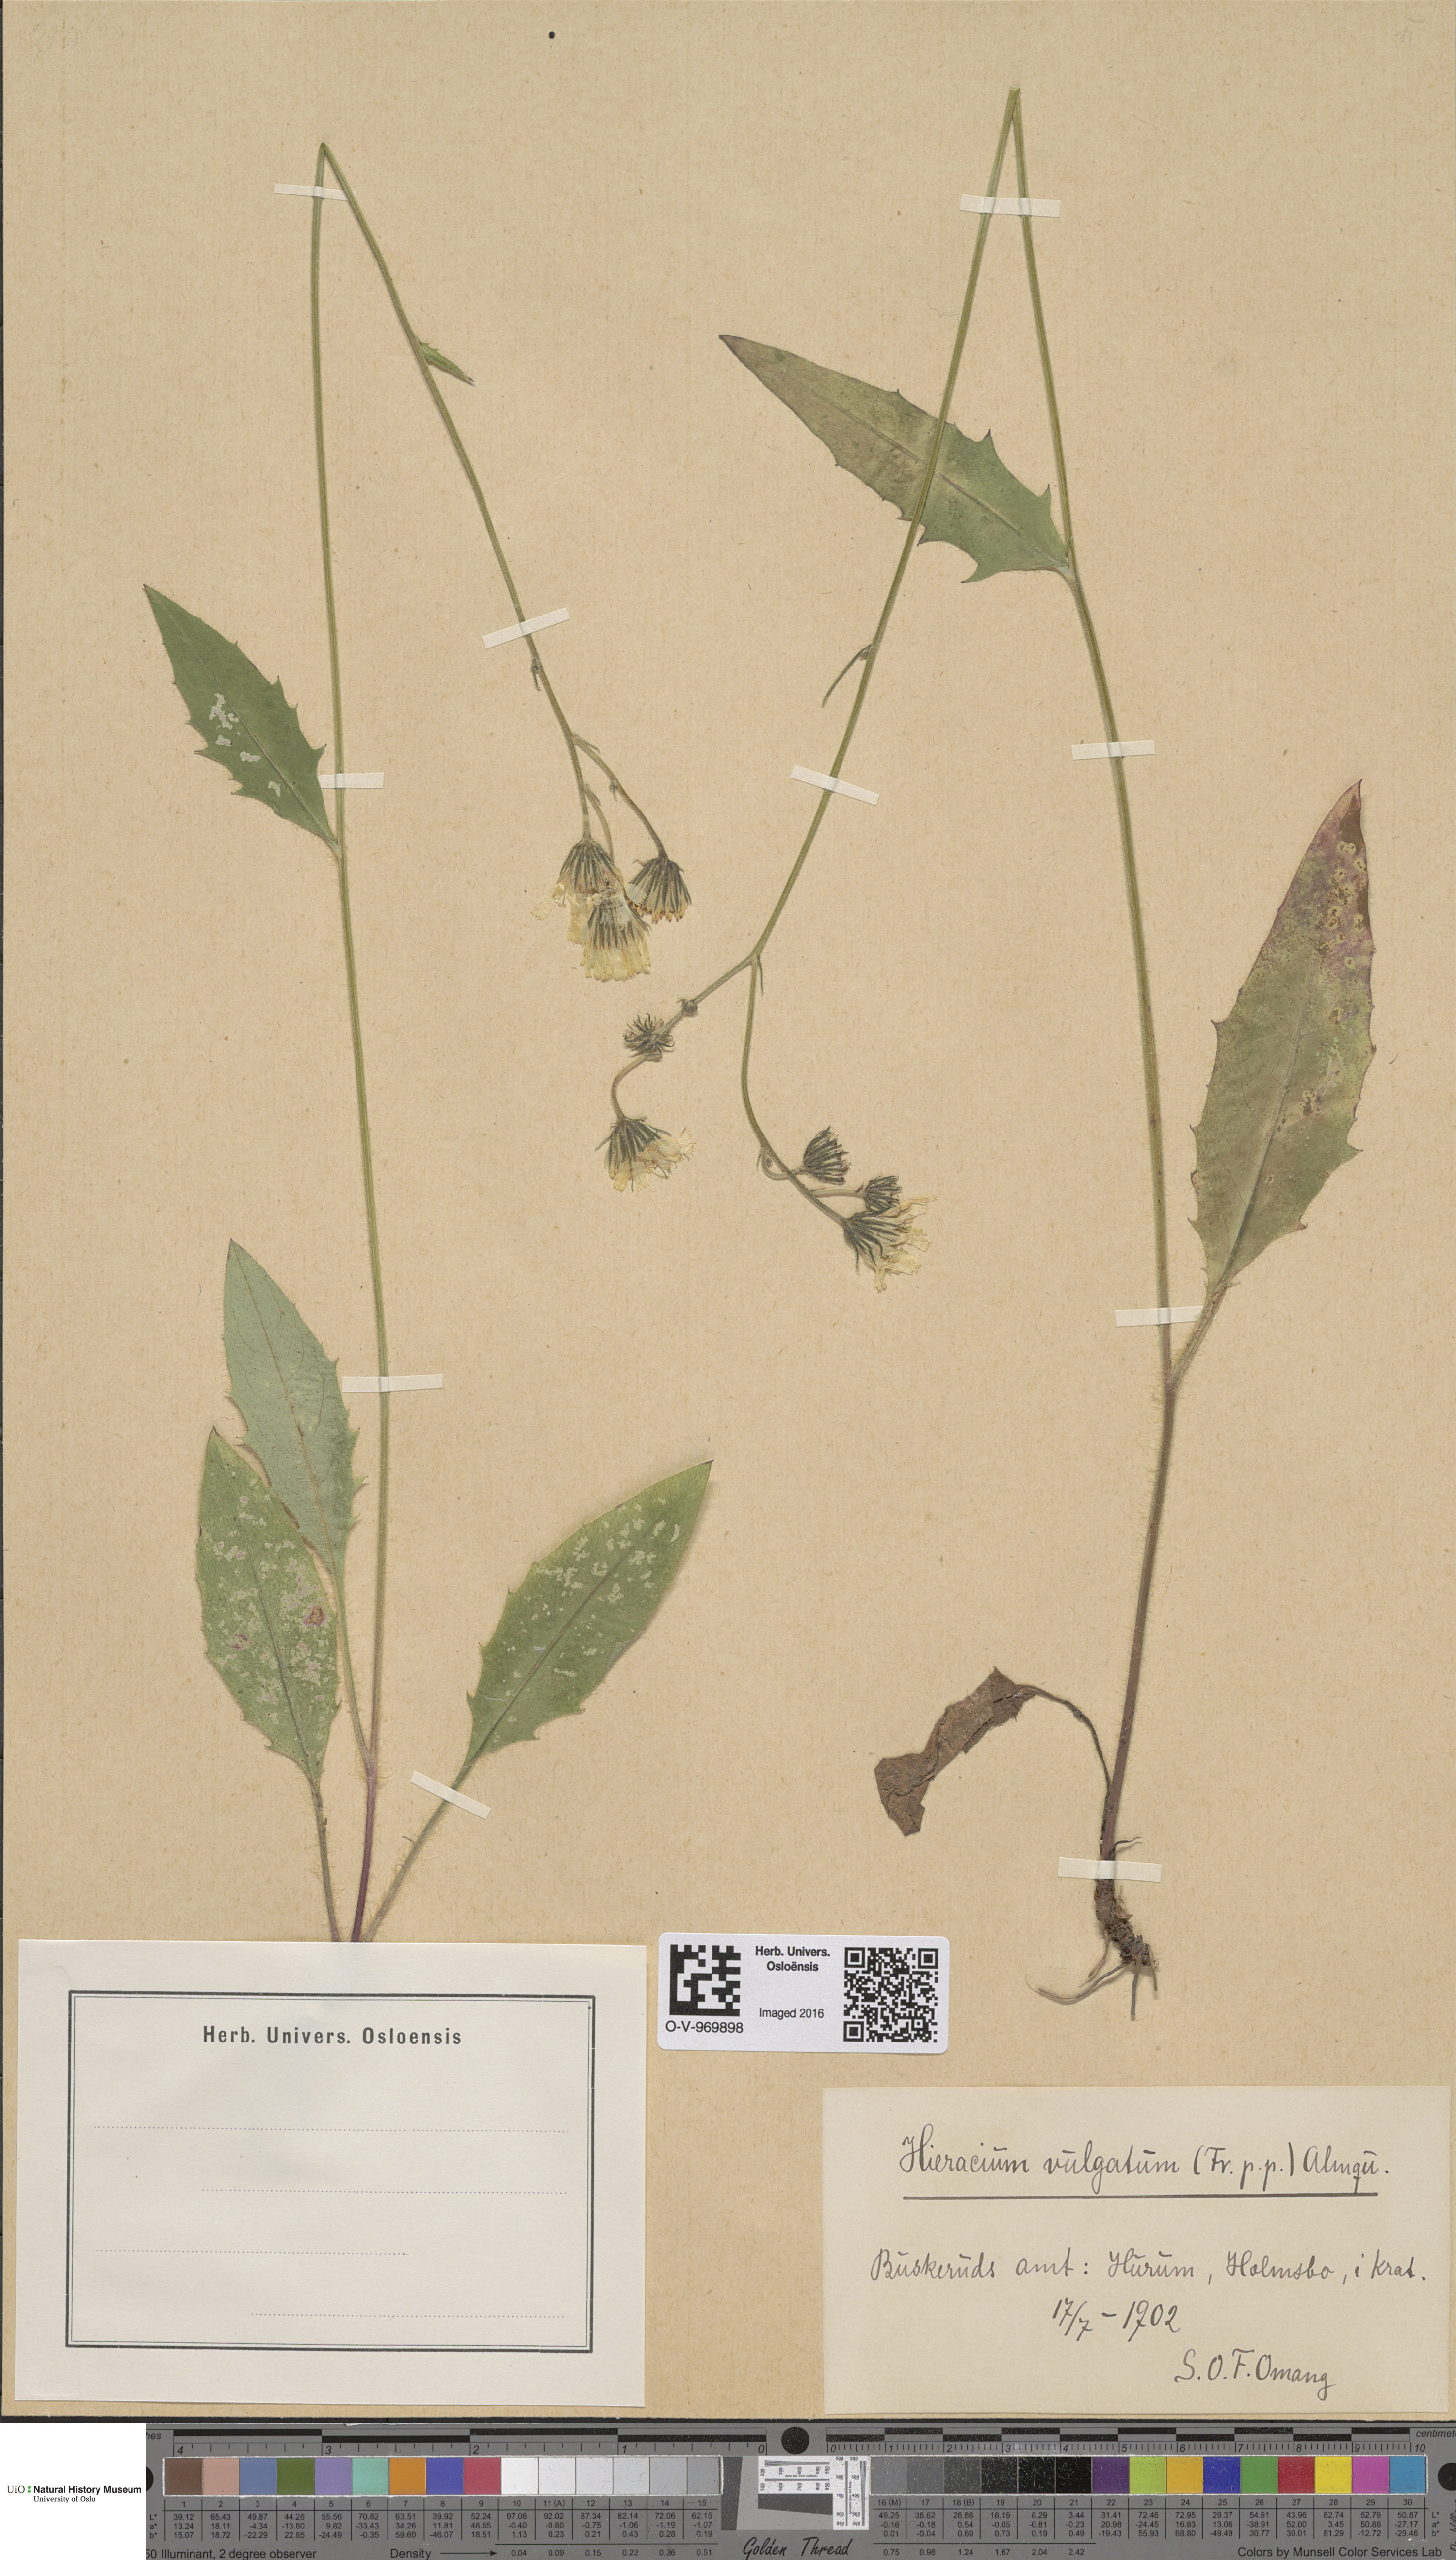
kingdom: Plantae
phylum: Tracheophyta
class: Magnoliopsida
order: Asterales
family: Asteraceae
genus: Hieracium
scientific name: Hieracium vulgatum
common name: Common hawkweed
